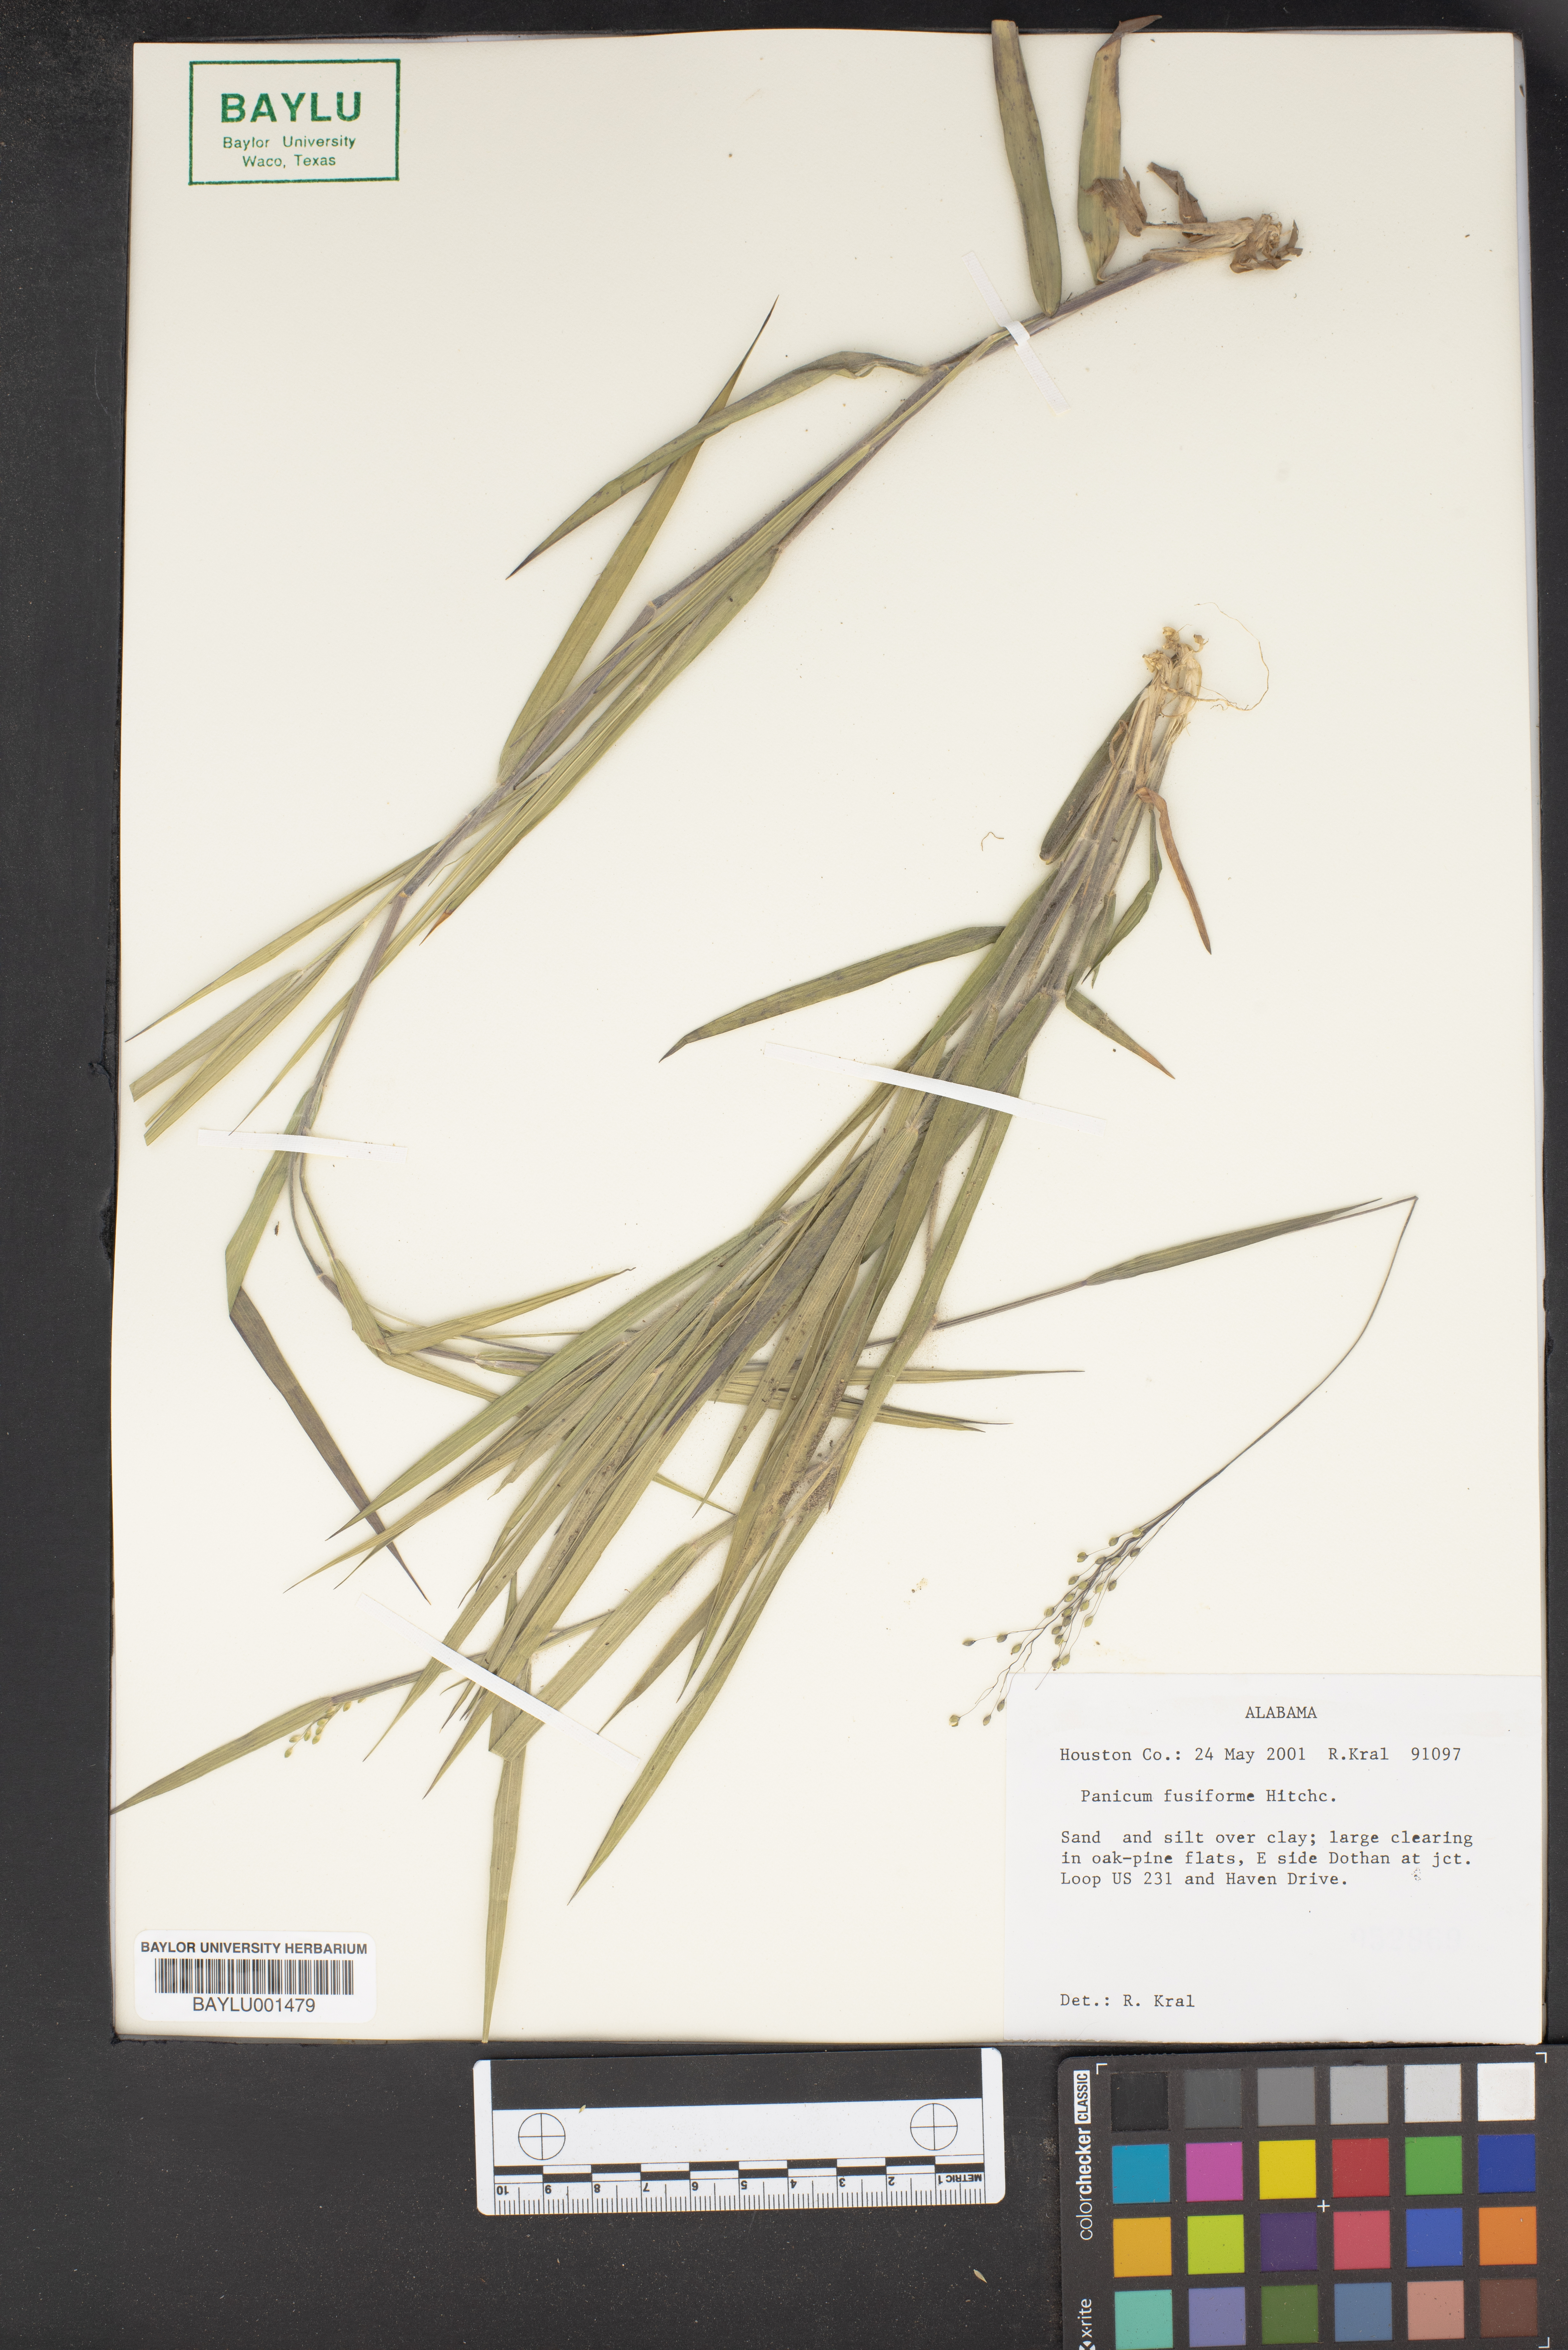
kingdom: Plantae
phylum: Tracheophyta
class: Liliopsida
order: Poales
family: Poaceae
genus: Dichanthelium
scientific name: Dichanthelium aciculare
